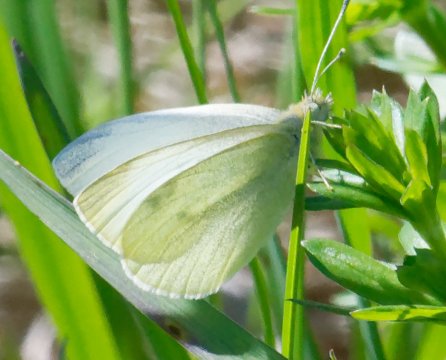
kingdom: Animalia
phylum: Arthropoda
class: Insecta
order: Lepidoptera
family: Pieridae
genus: Pieris
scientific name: Pieris rapae
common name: Cabbage White
